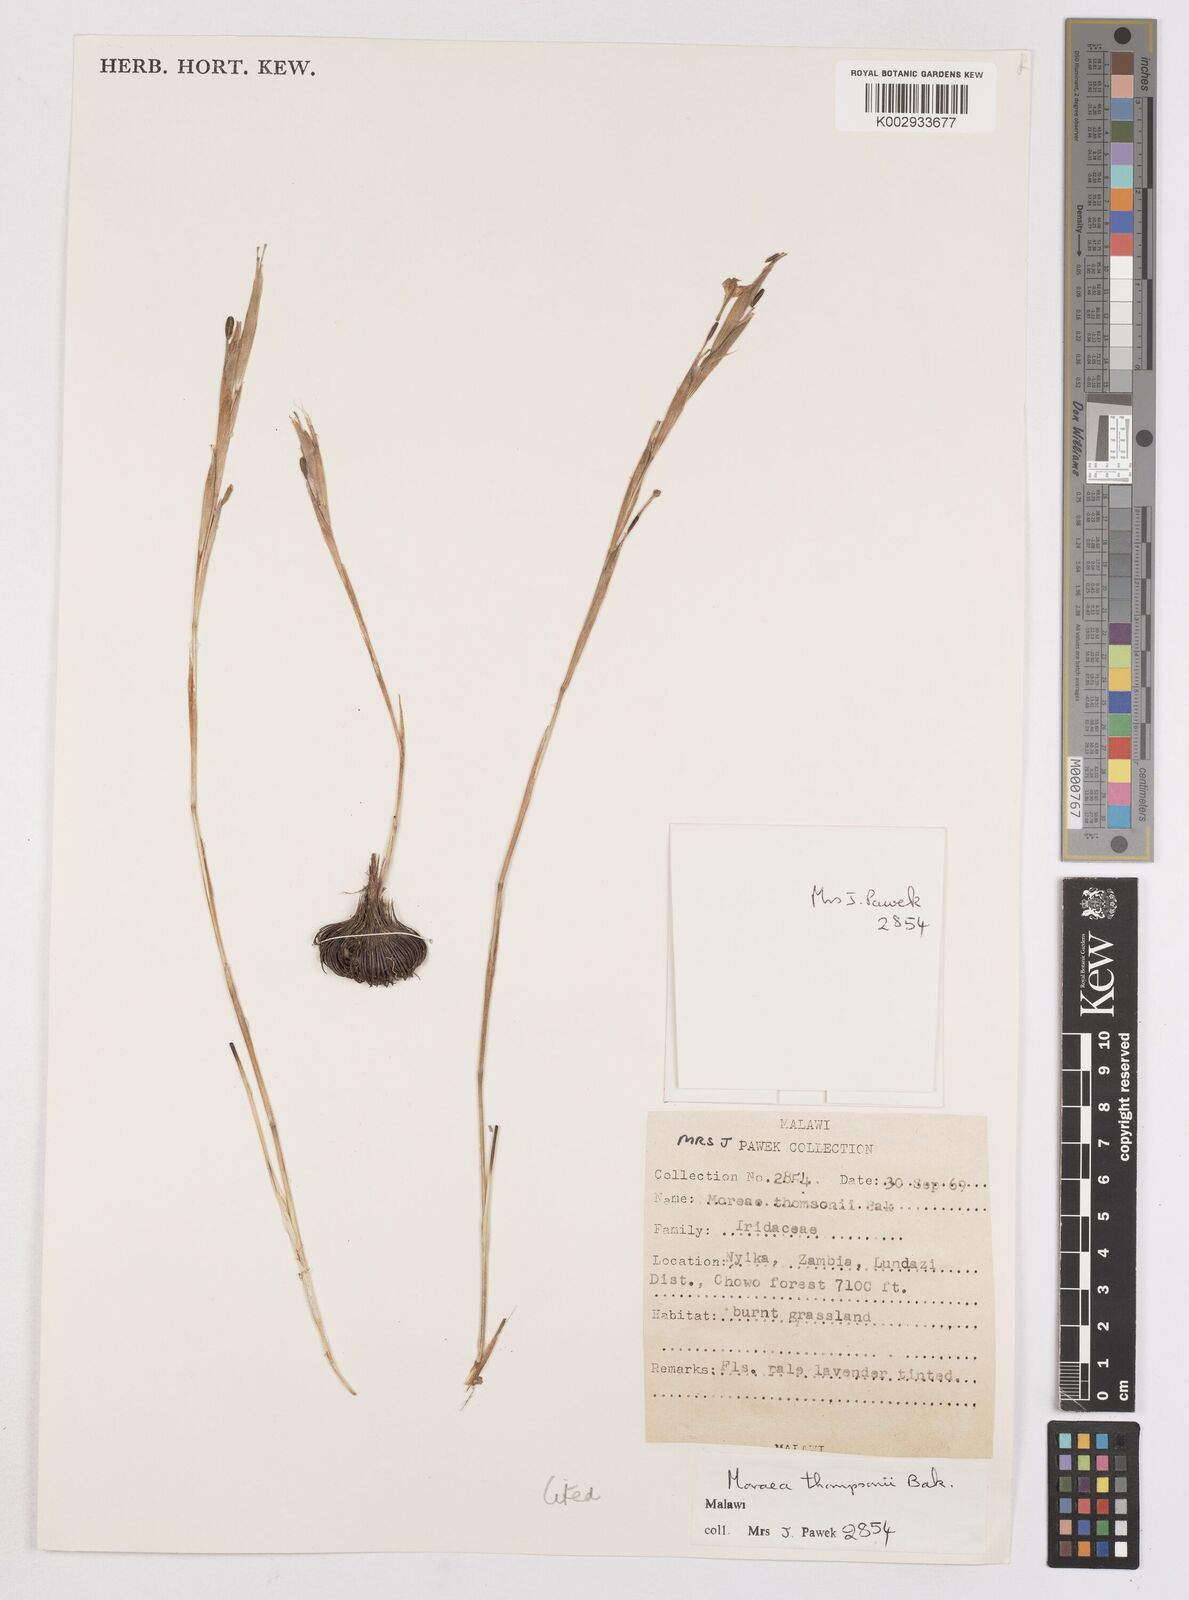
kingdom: Plantae
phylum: Tracheophyta
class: Liliopsida
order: Asparagales
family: Iridaceae
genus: Moraea
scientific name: Moraea thomsonii
